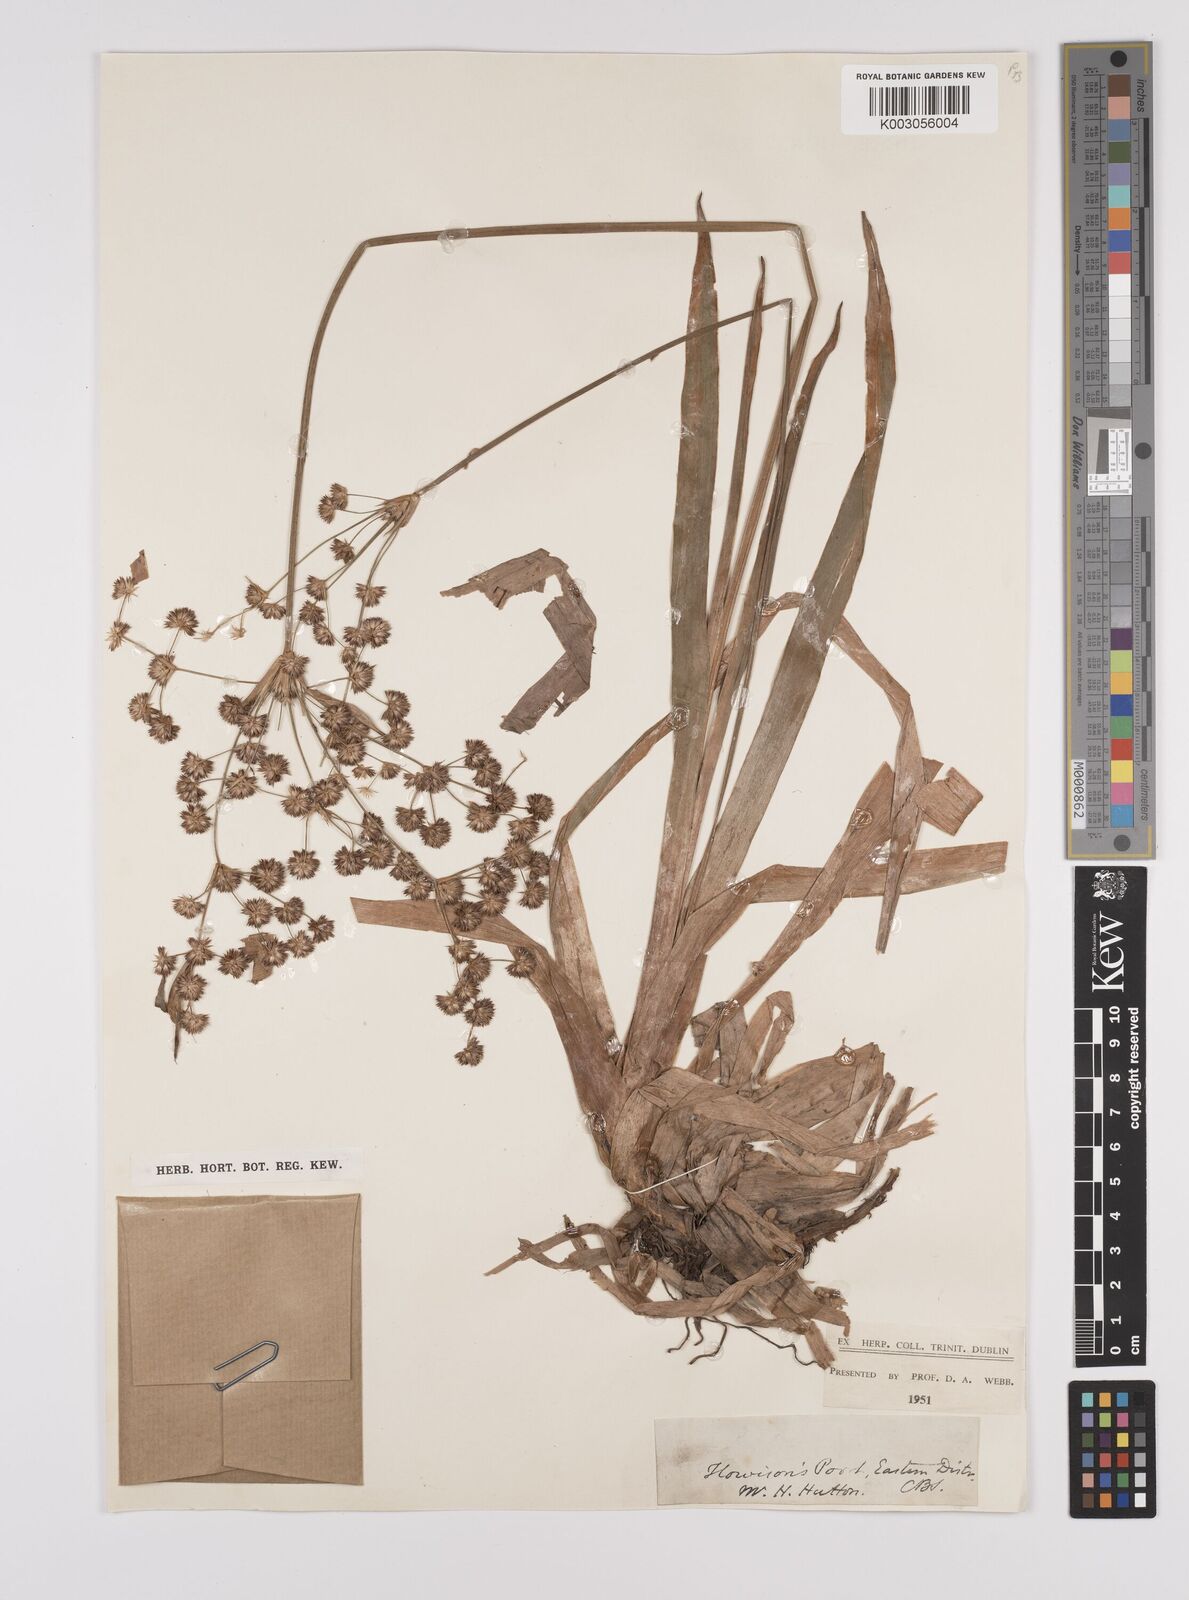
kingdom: Plantae
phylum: Tracheophyta
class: Liliopsida
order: Poales
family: Juncaceae
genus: Juncus
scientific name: Juncus lomatophyllus
